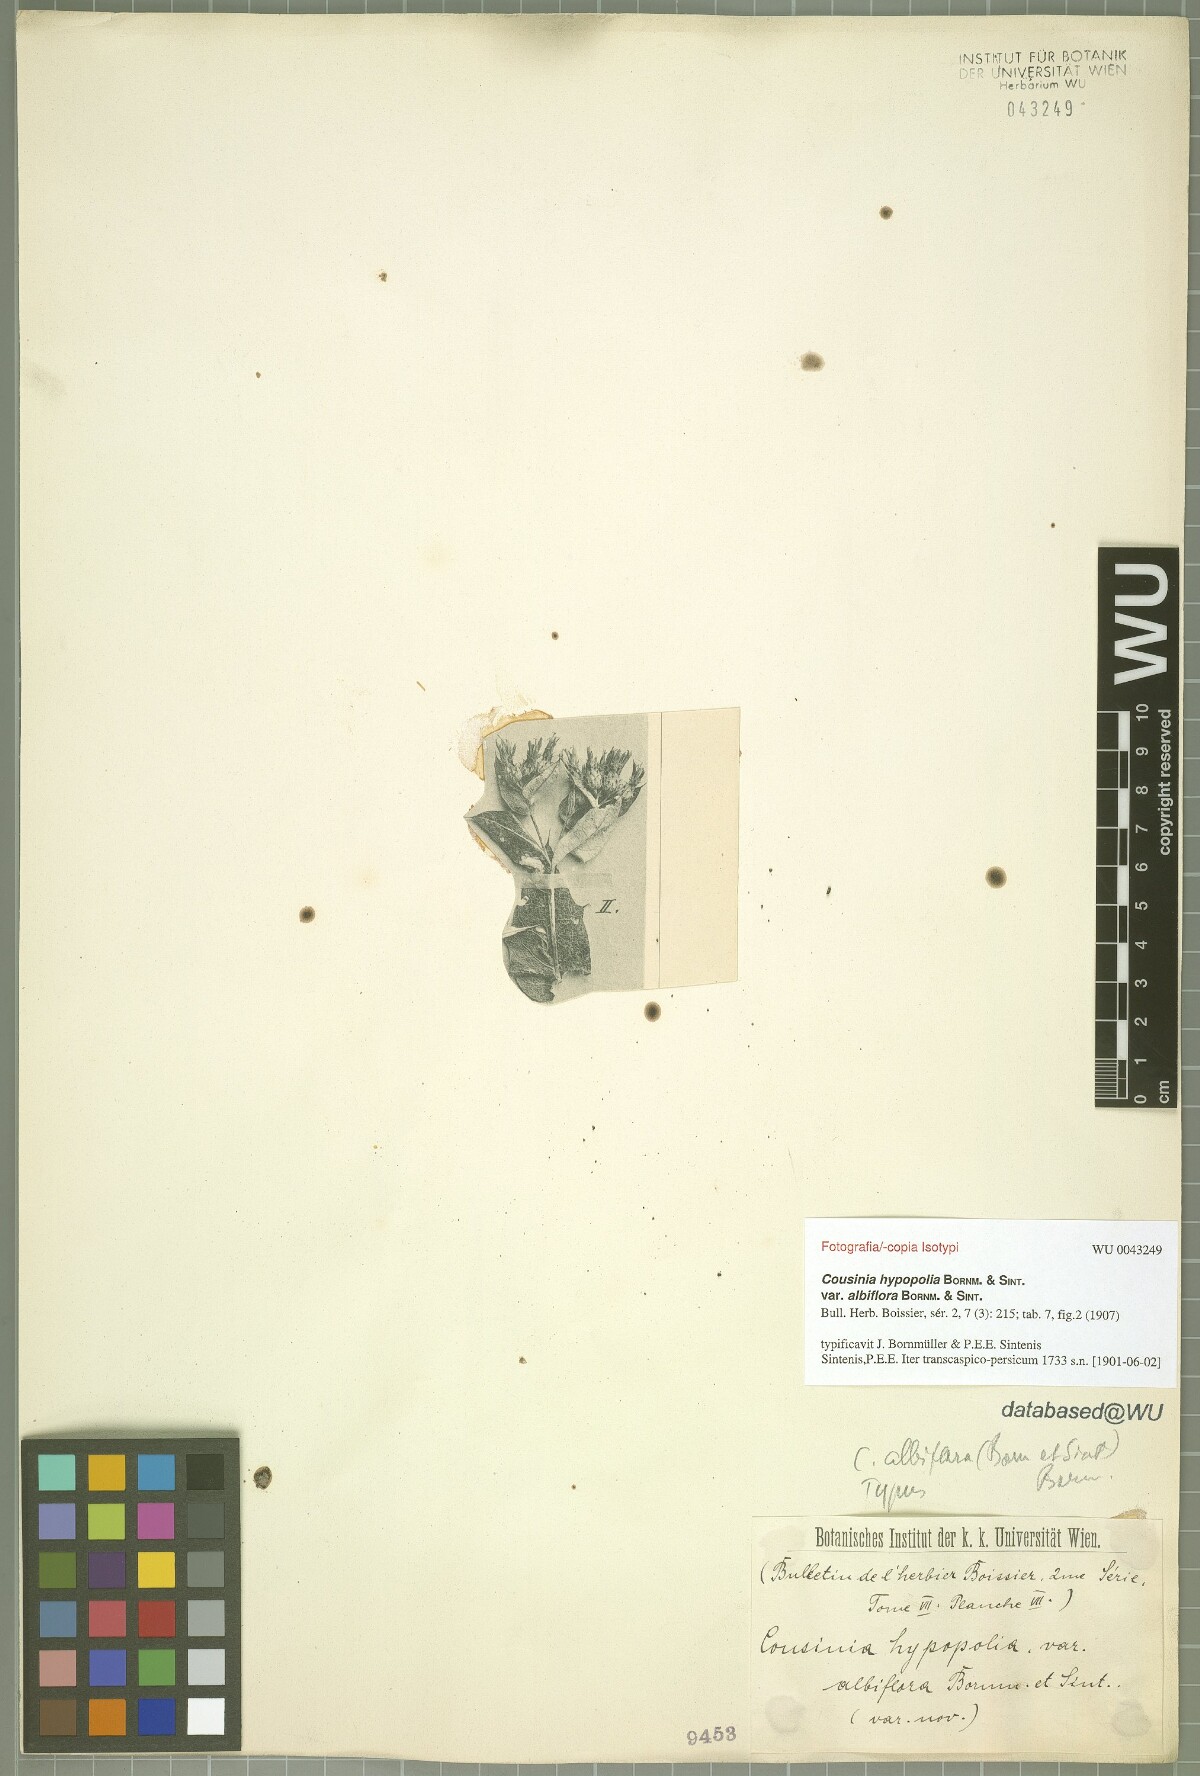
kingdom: Plantae
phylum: Tracheophyta
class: Magnoliopsida
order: Asterales
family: Asteraceae
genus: Cousinia
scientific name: Cousinia albiflora
